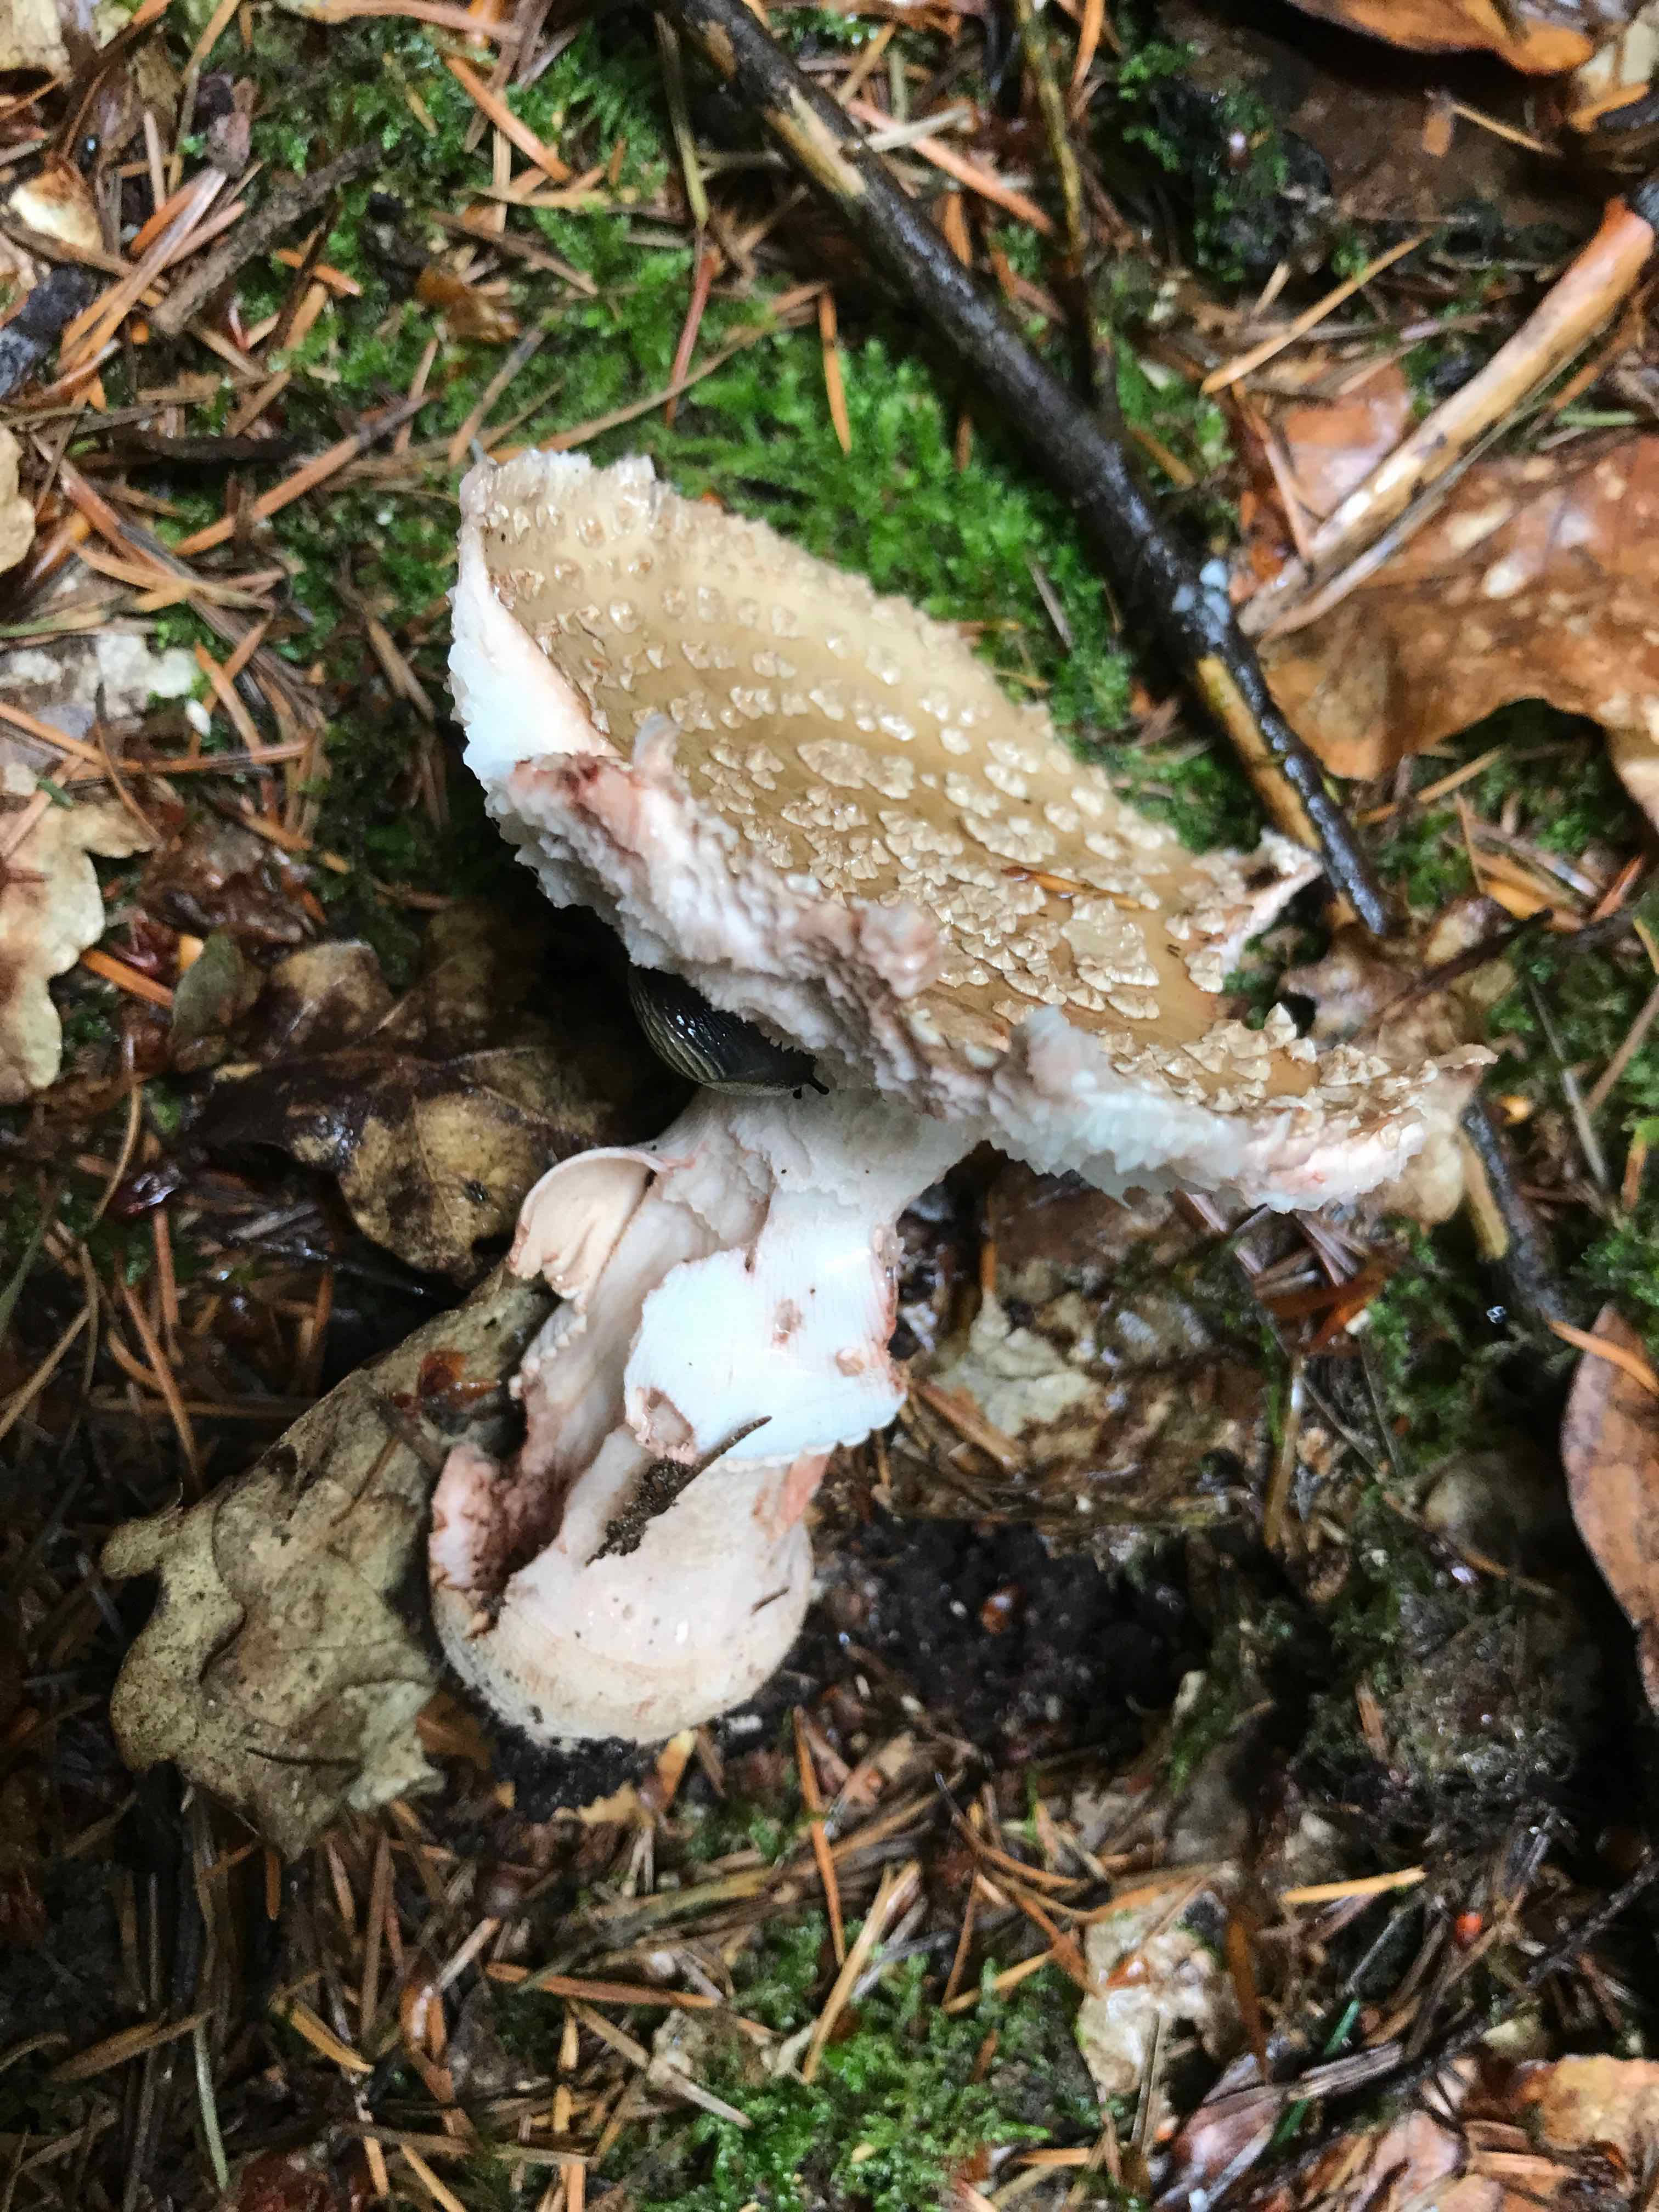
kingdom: Fungi
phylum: Basidiomycota
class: Agaricomycetes
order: Agaricales
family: Amanitaceae
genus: Amanita
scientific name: Amanita rubescens
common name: rødmende fluesvamp
